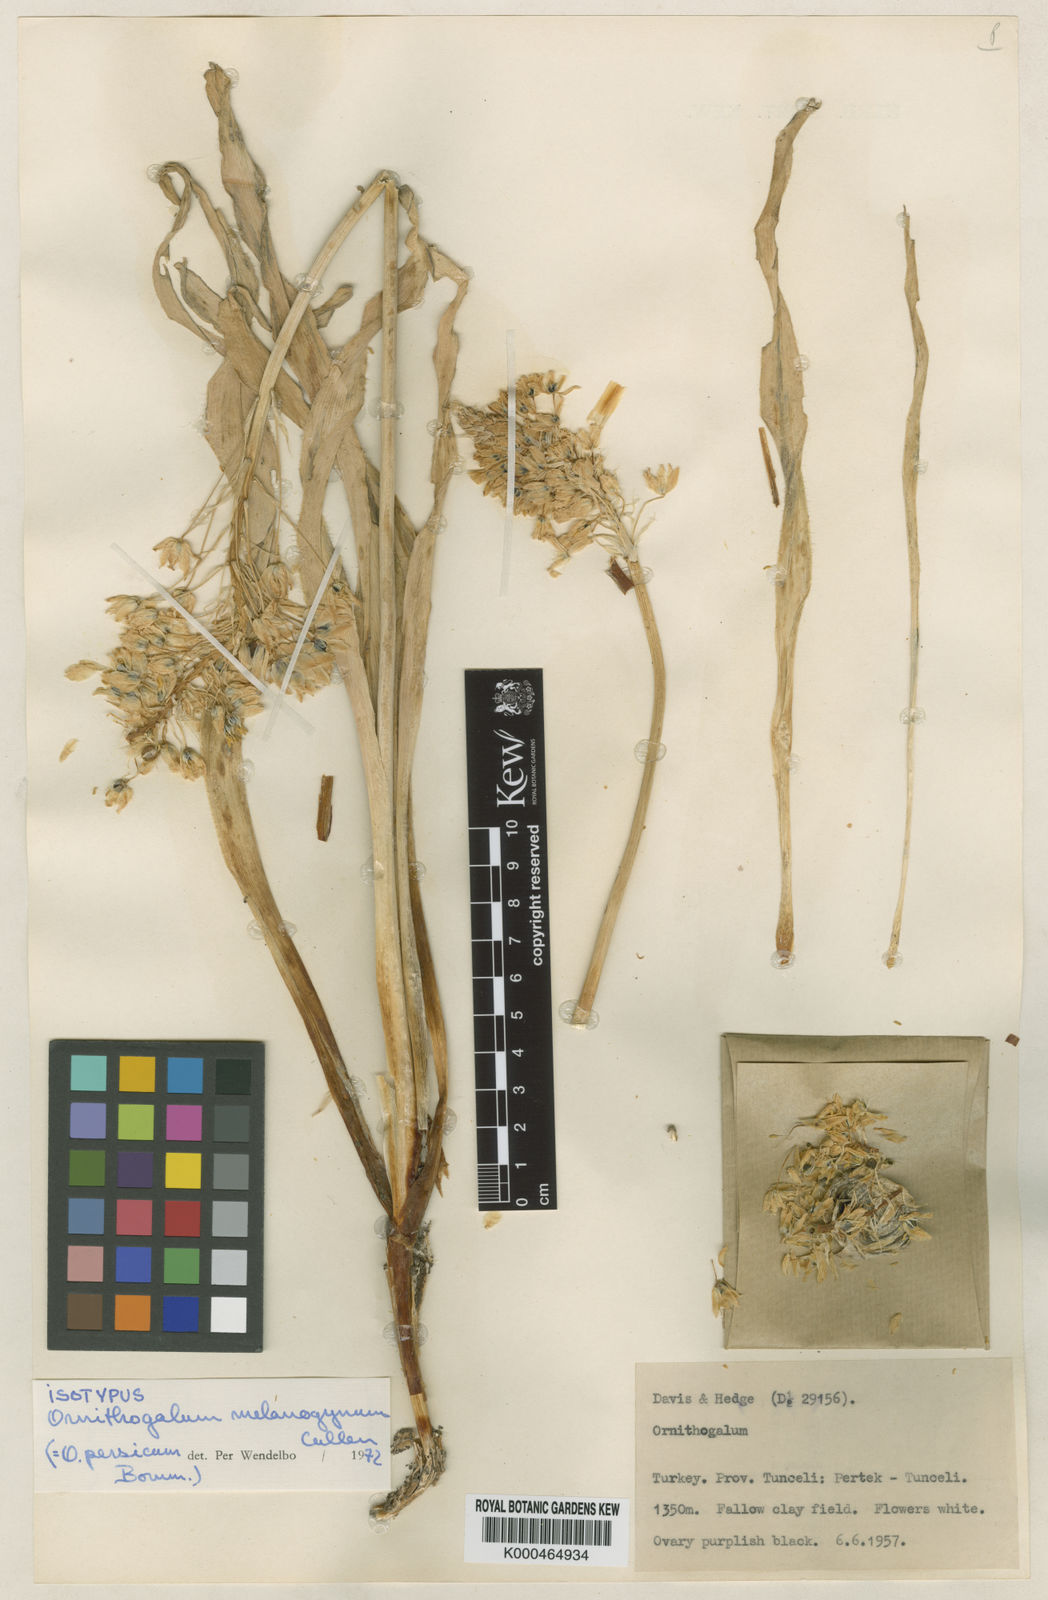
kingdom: Plantae
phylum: Tracheophyta
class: Liliopsida
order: Asparagales
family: Asparagaceae
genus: Ornithogalum
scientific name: Ornithogalum persicum
